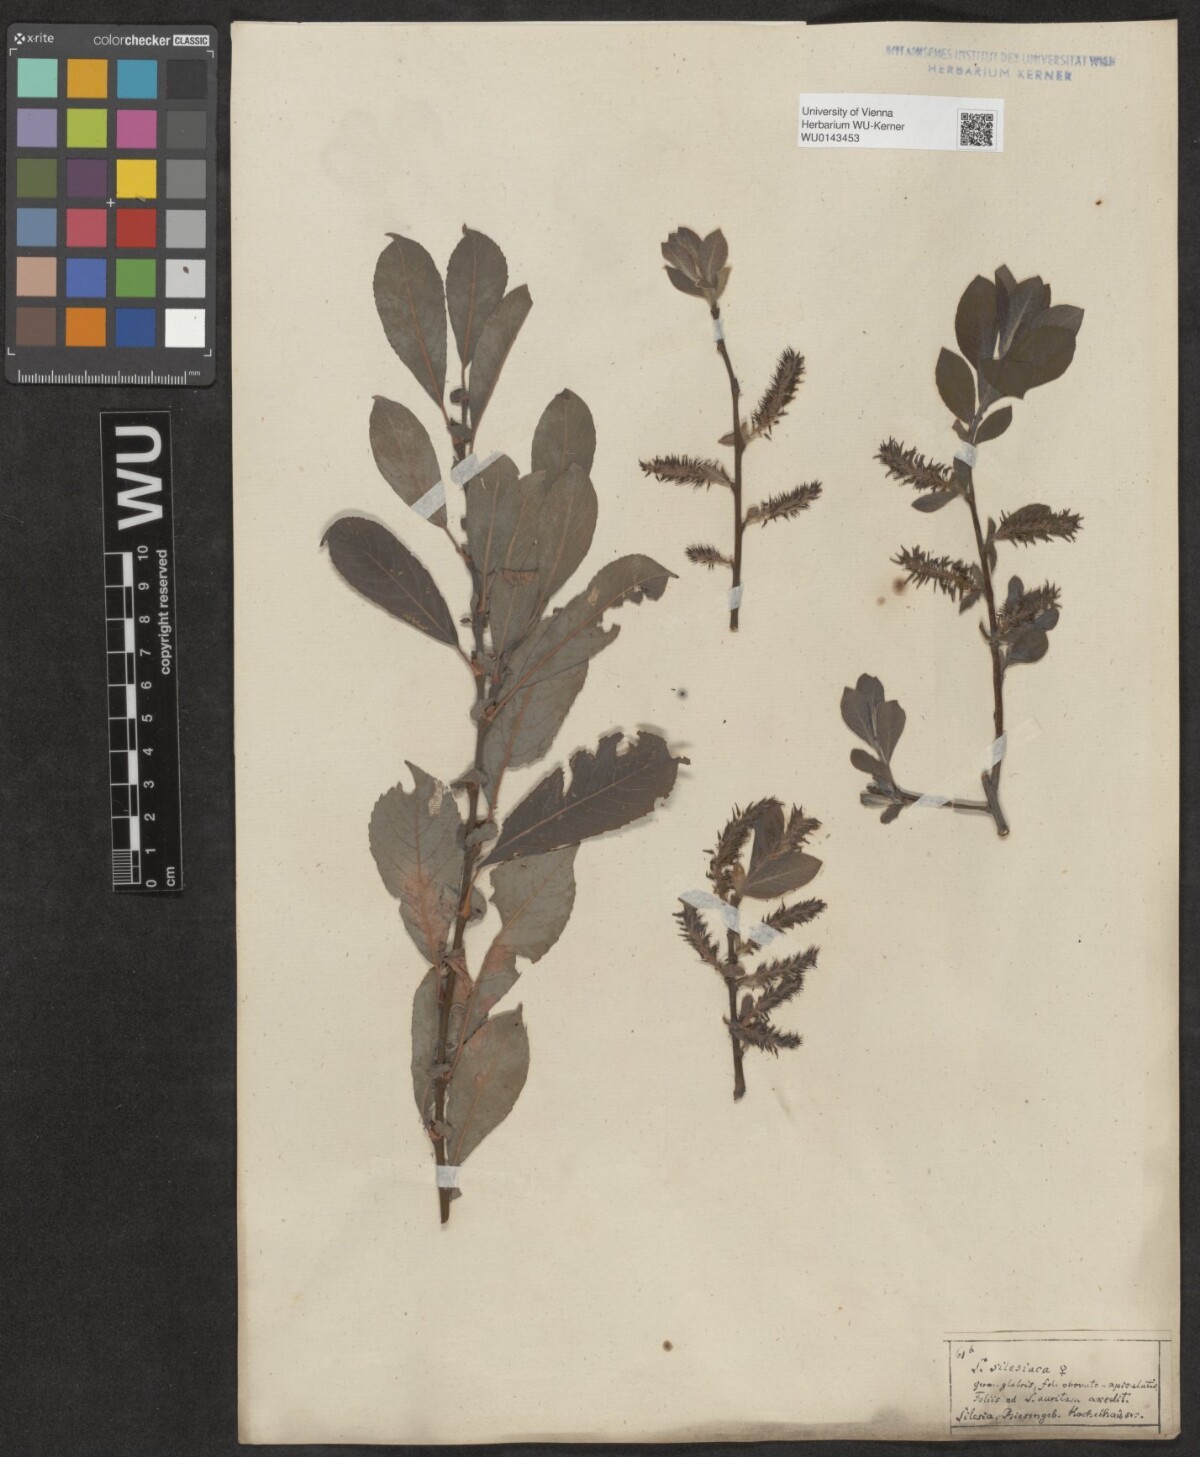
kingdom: Plantae
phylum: Tracheophyta
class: Magnoliopsida
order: Malpighiales
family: Salicaceae
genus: Salix
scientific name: Salix silesiaca
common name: Silesian willow
